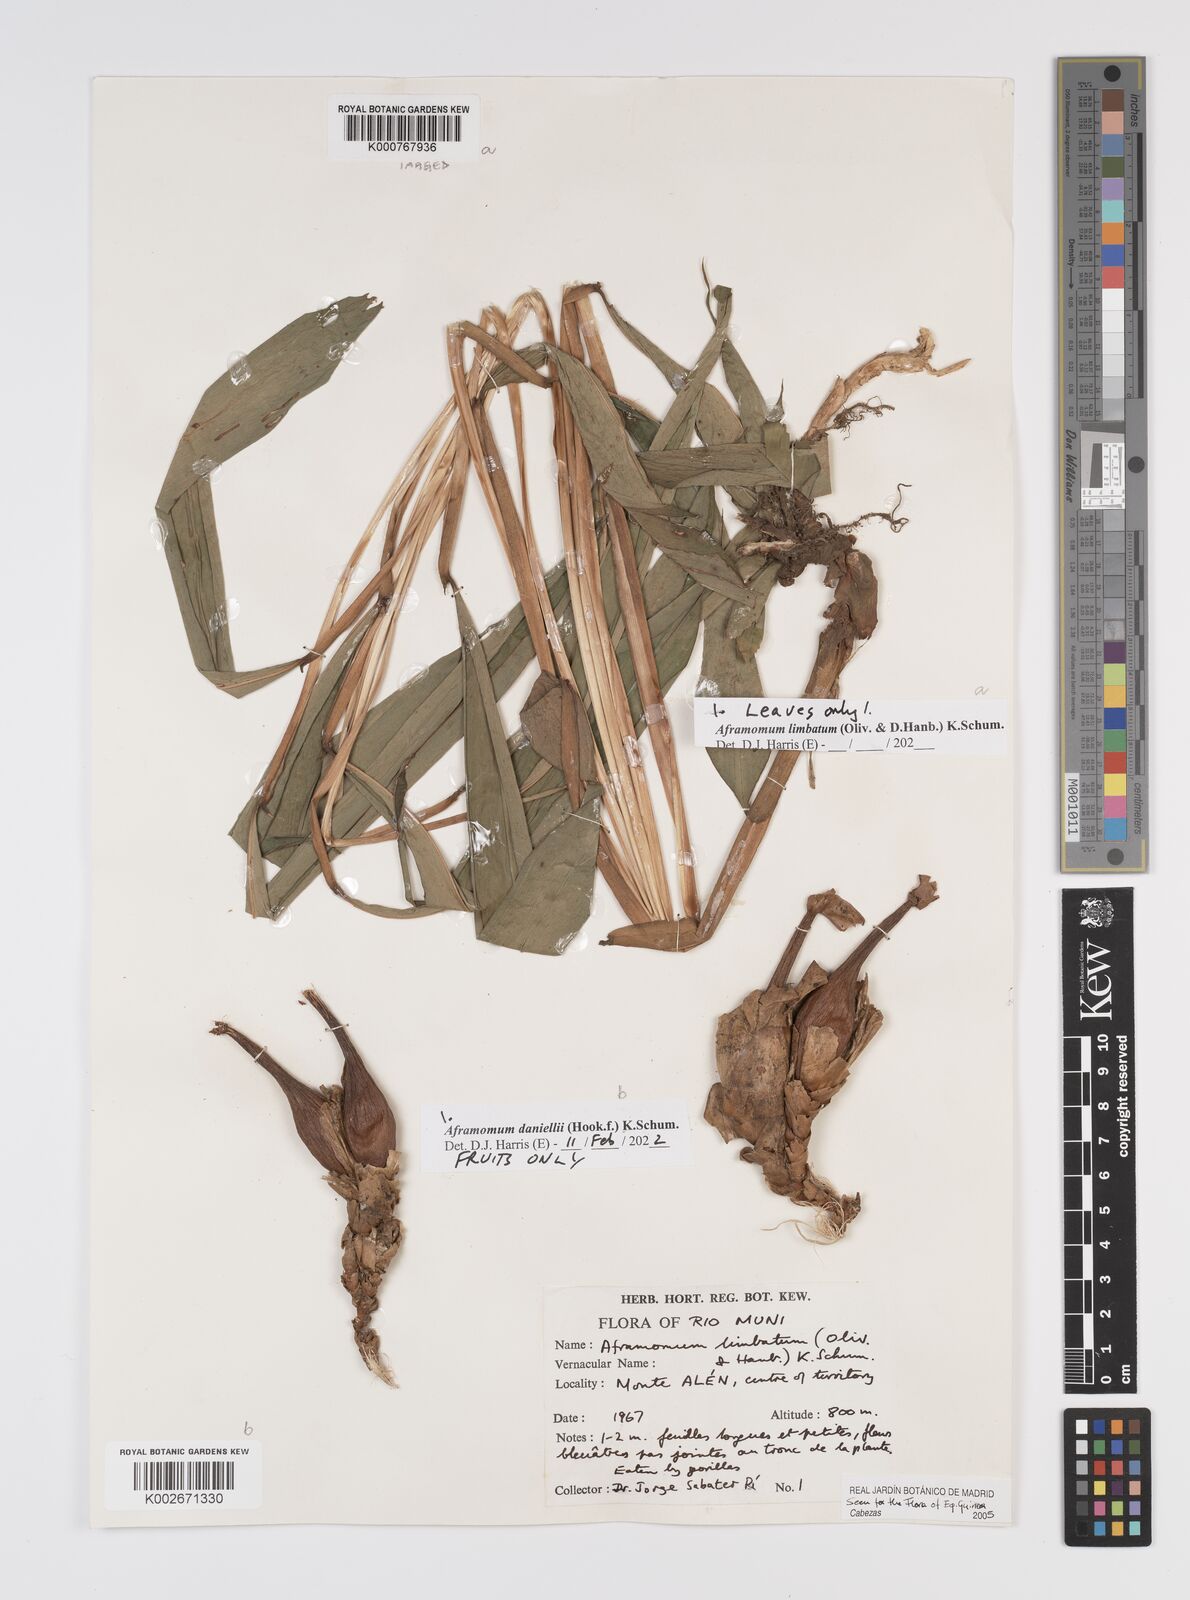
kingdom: Plantae
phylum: Tracheophyta
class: Liliopsida
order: Zingiberales
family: Zingiberaceae
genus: Aframomum
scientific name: Aframomum
